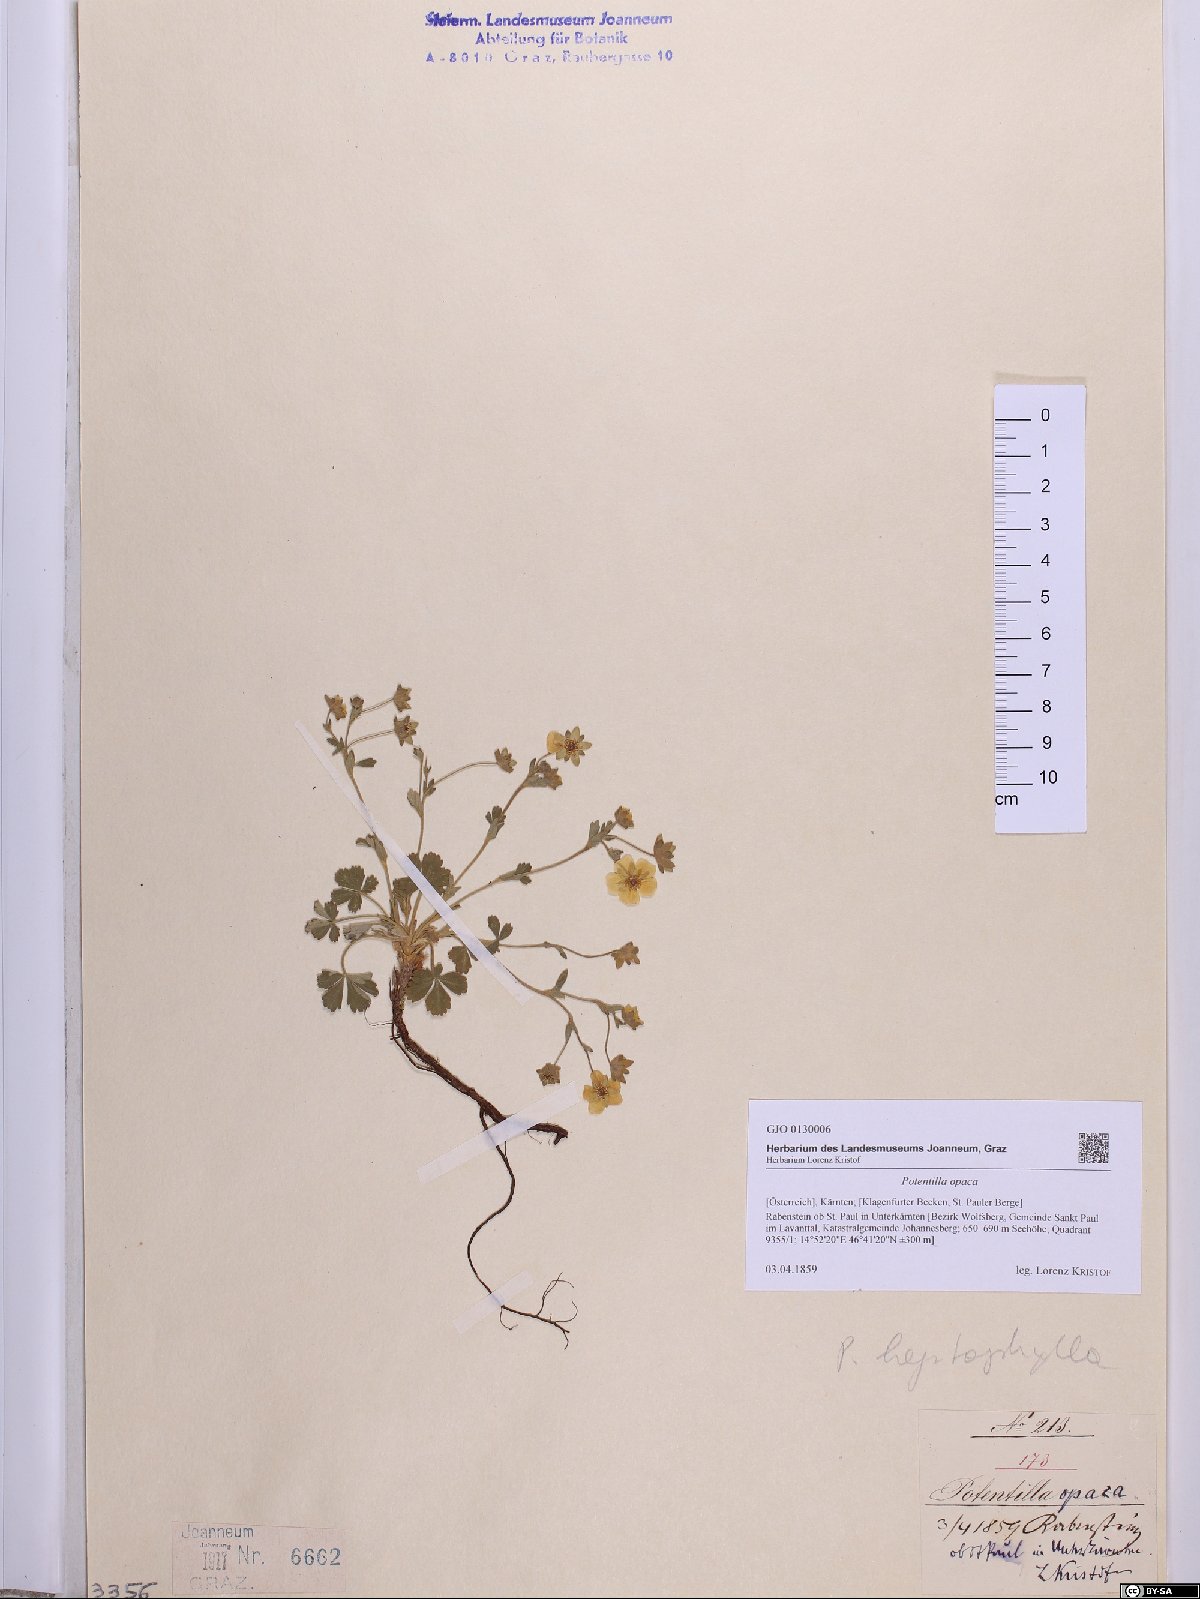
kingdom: Plantae
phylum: Tracheophyta
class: Magnoliopsida
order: Rosales
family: Rosaceae
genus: Potentilla
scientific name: Potentilla
